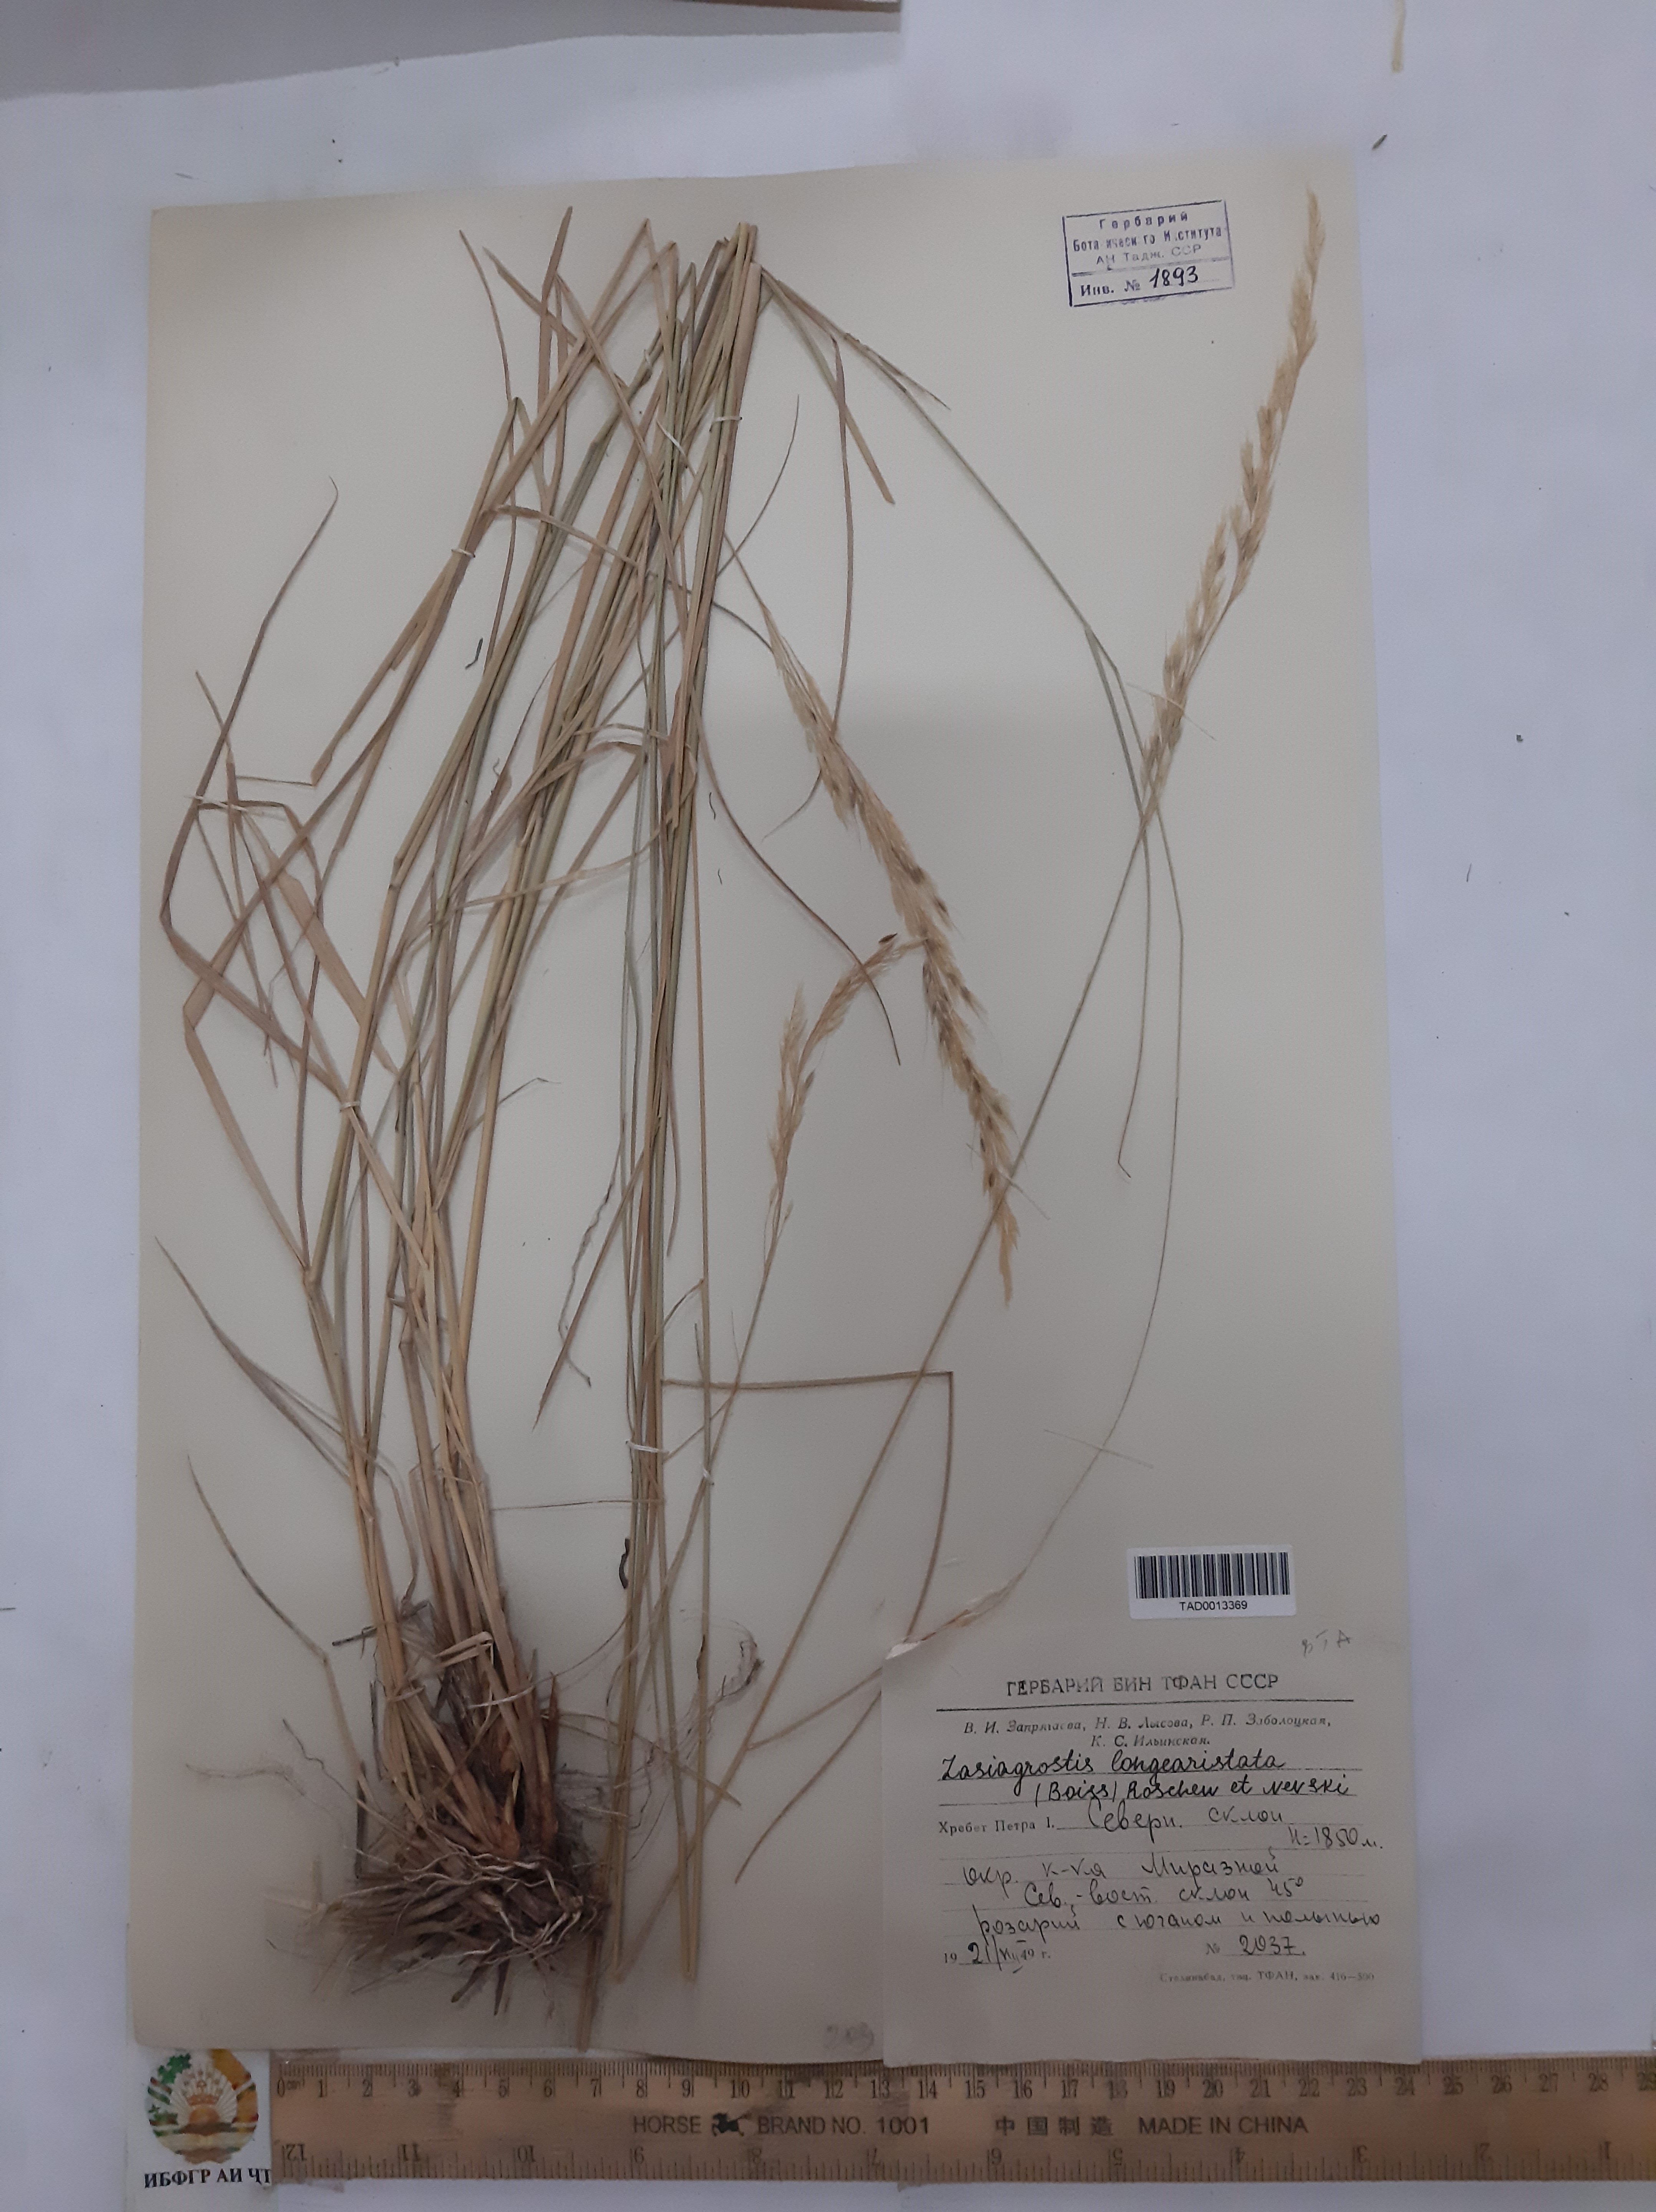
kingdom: Plantae
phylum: Tracheophyta
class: Liliopsida
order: Poales
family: Poaceae
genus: Achnatherum
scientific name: Achnatherum turcomanicum
